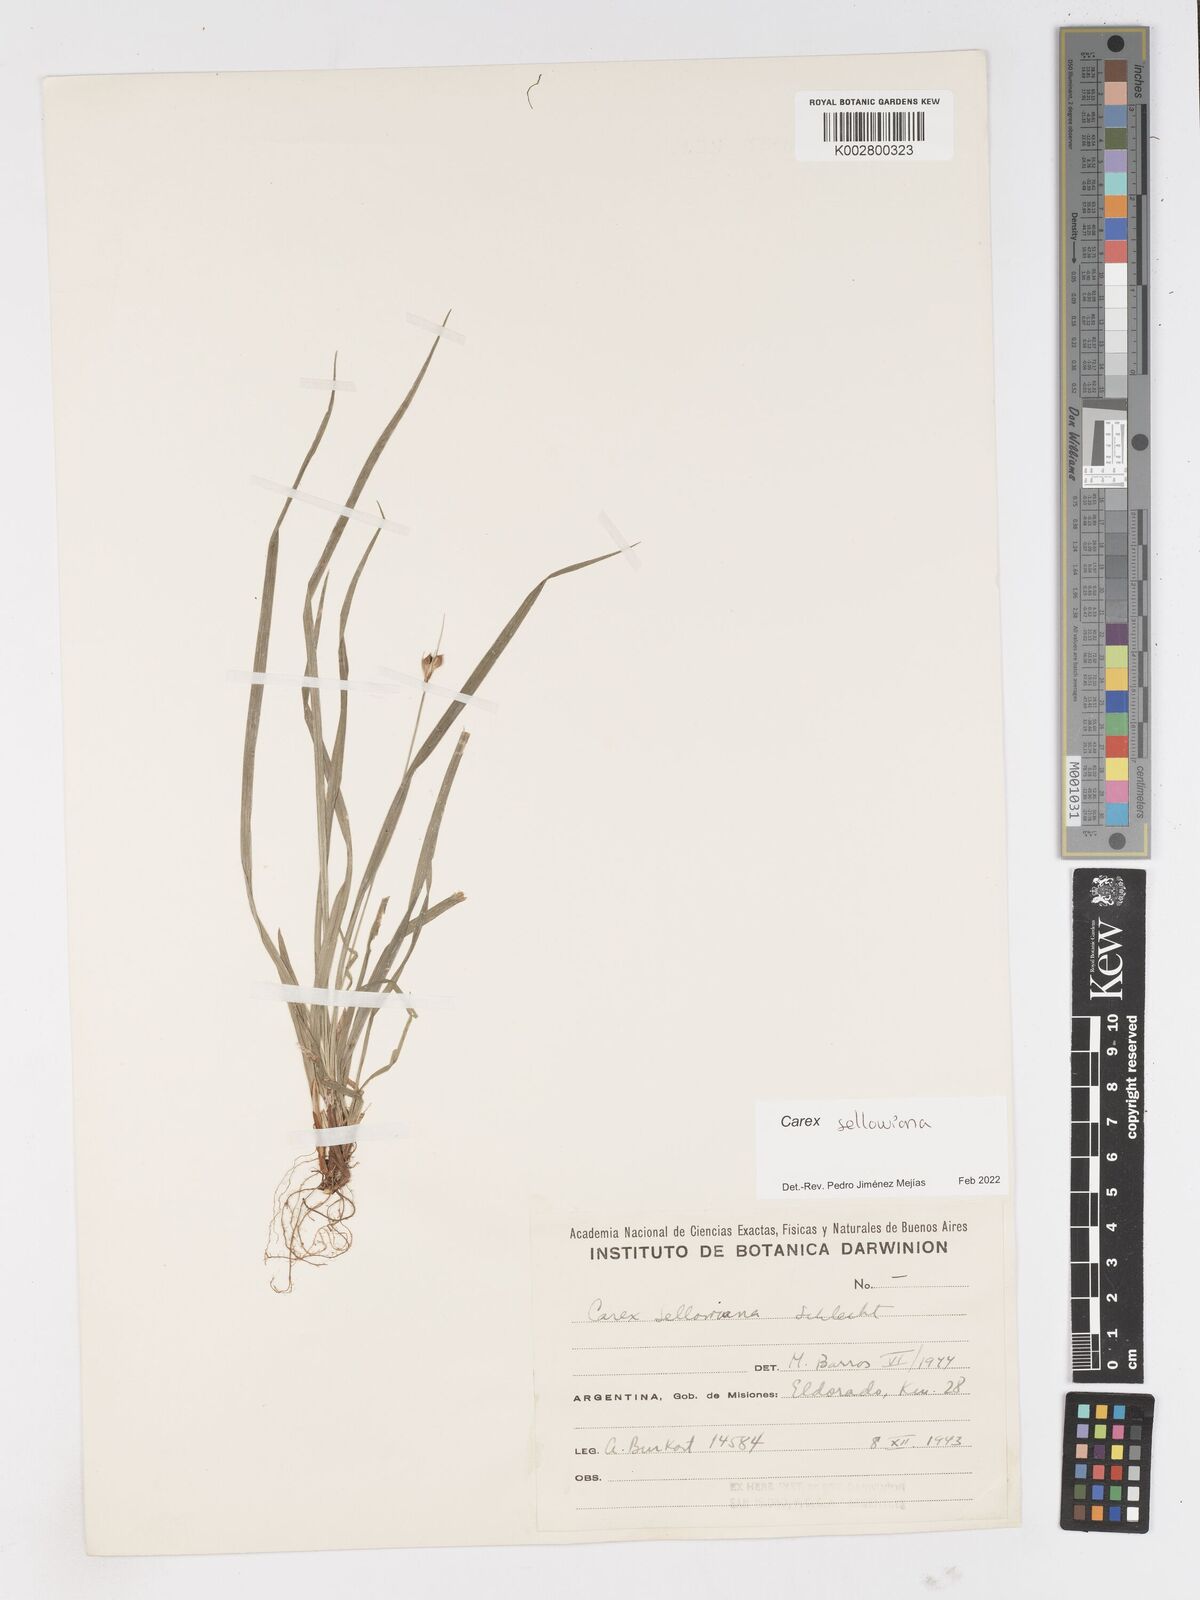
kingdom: Plantae
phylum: Tracheophyta
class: Liliopsida
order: Poales
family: Cyperaceae
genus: Carex
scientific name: Carex sellowiana
